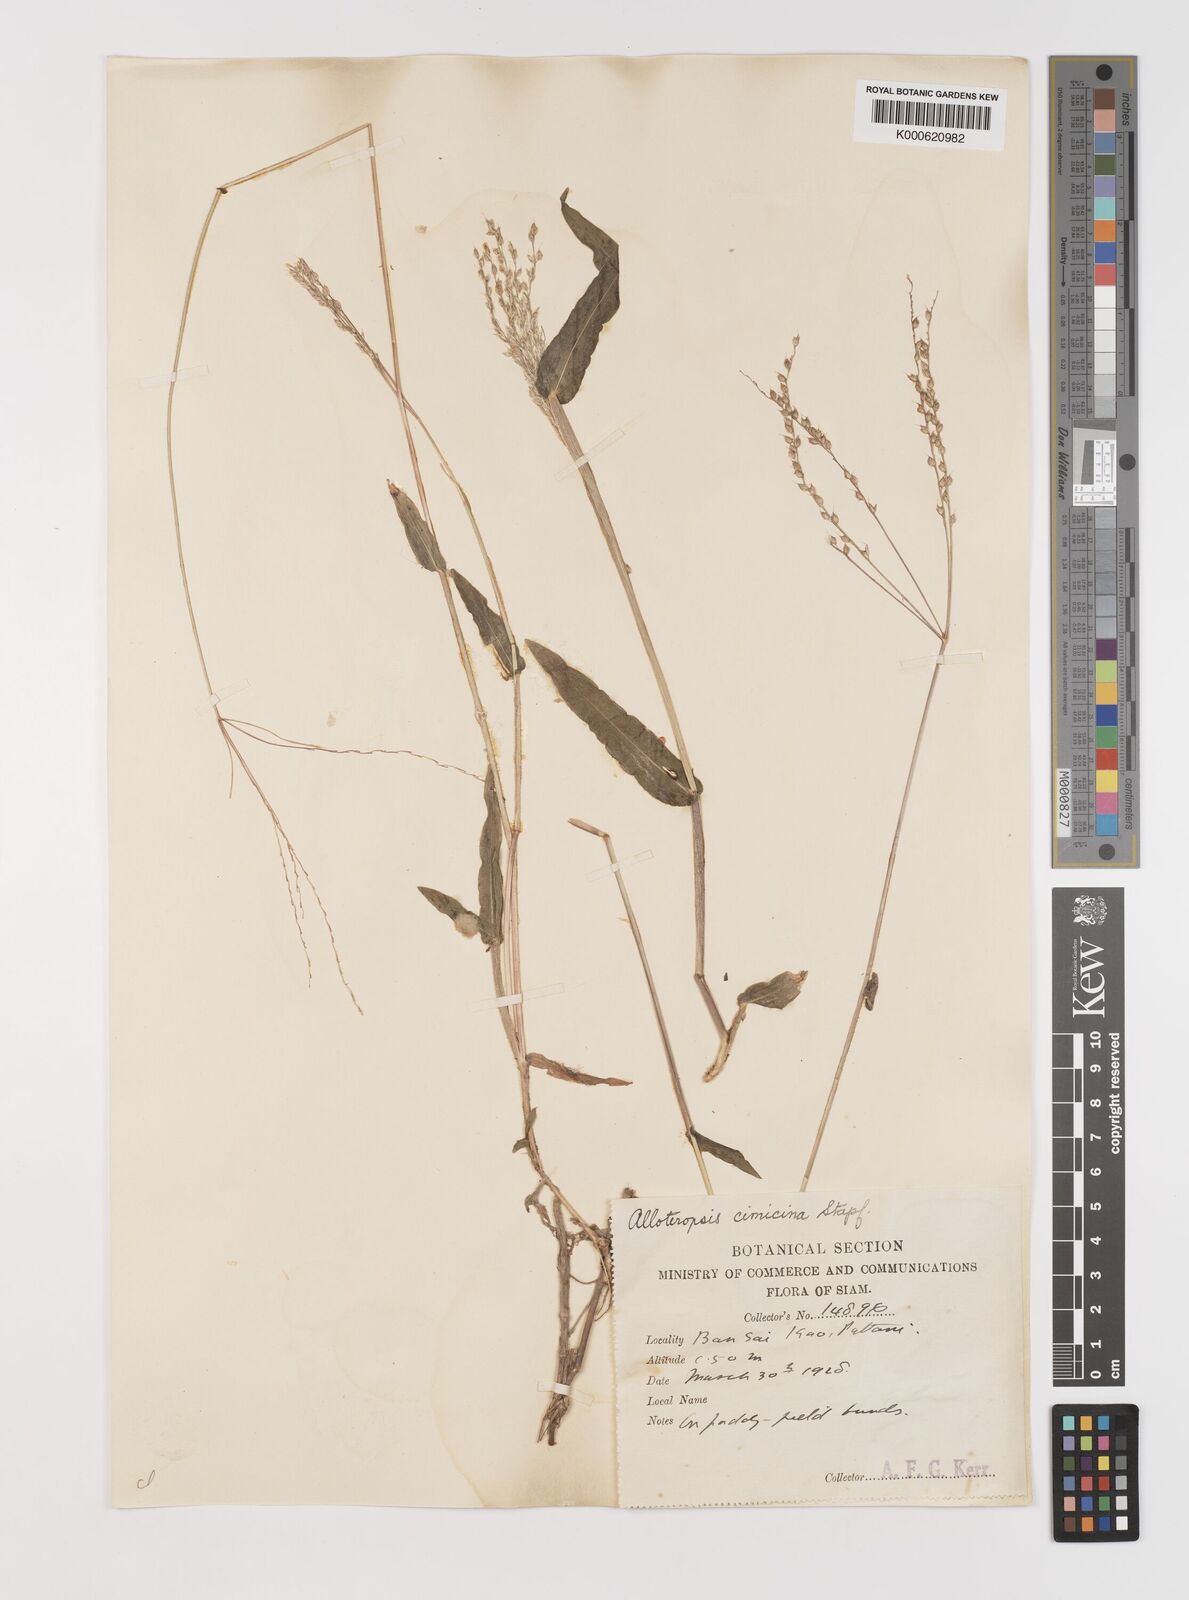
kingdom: Plantae
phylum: Tracheophyta
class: Liliopsida
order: Poales
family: Poaceae
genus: Alloteropsis
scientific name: Alloteropsis cimicina
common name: Summergrass
